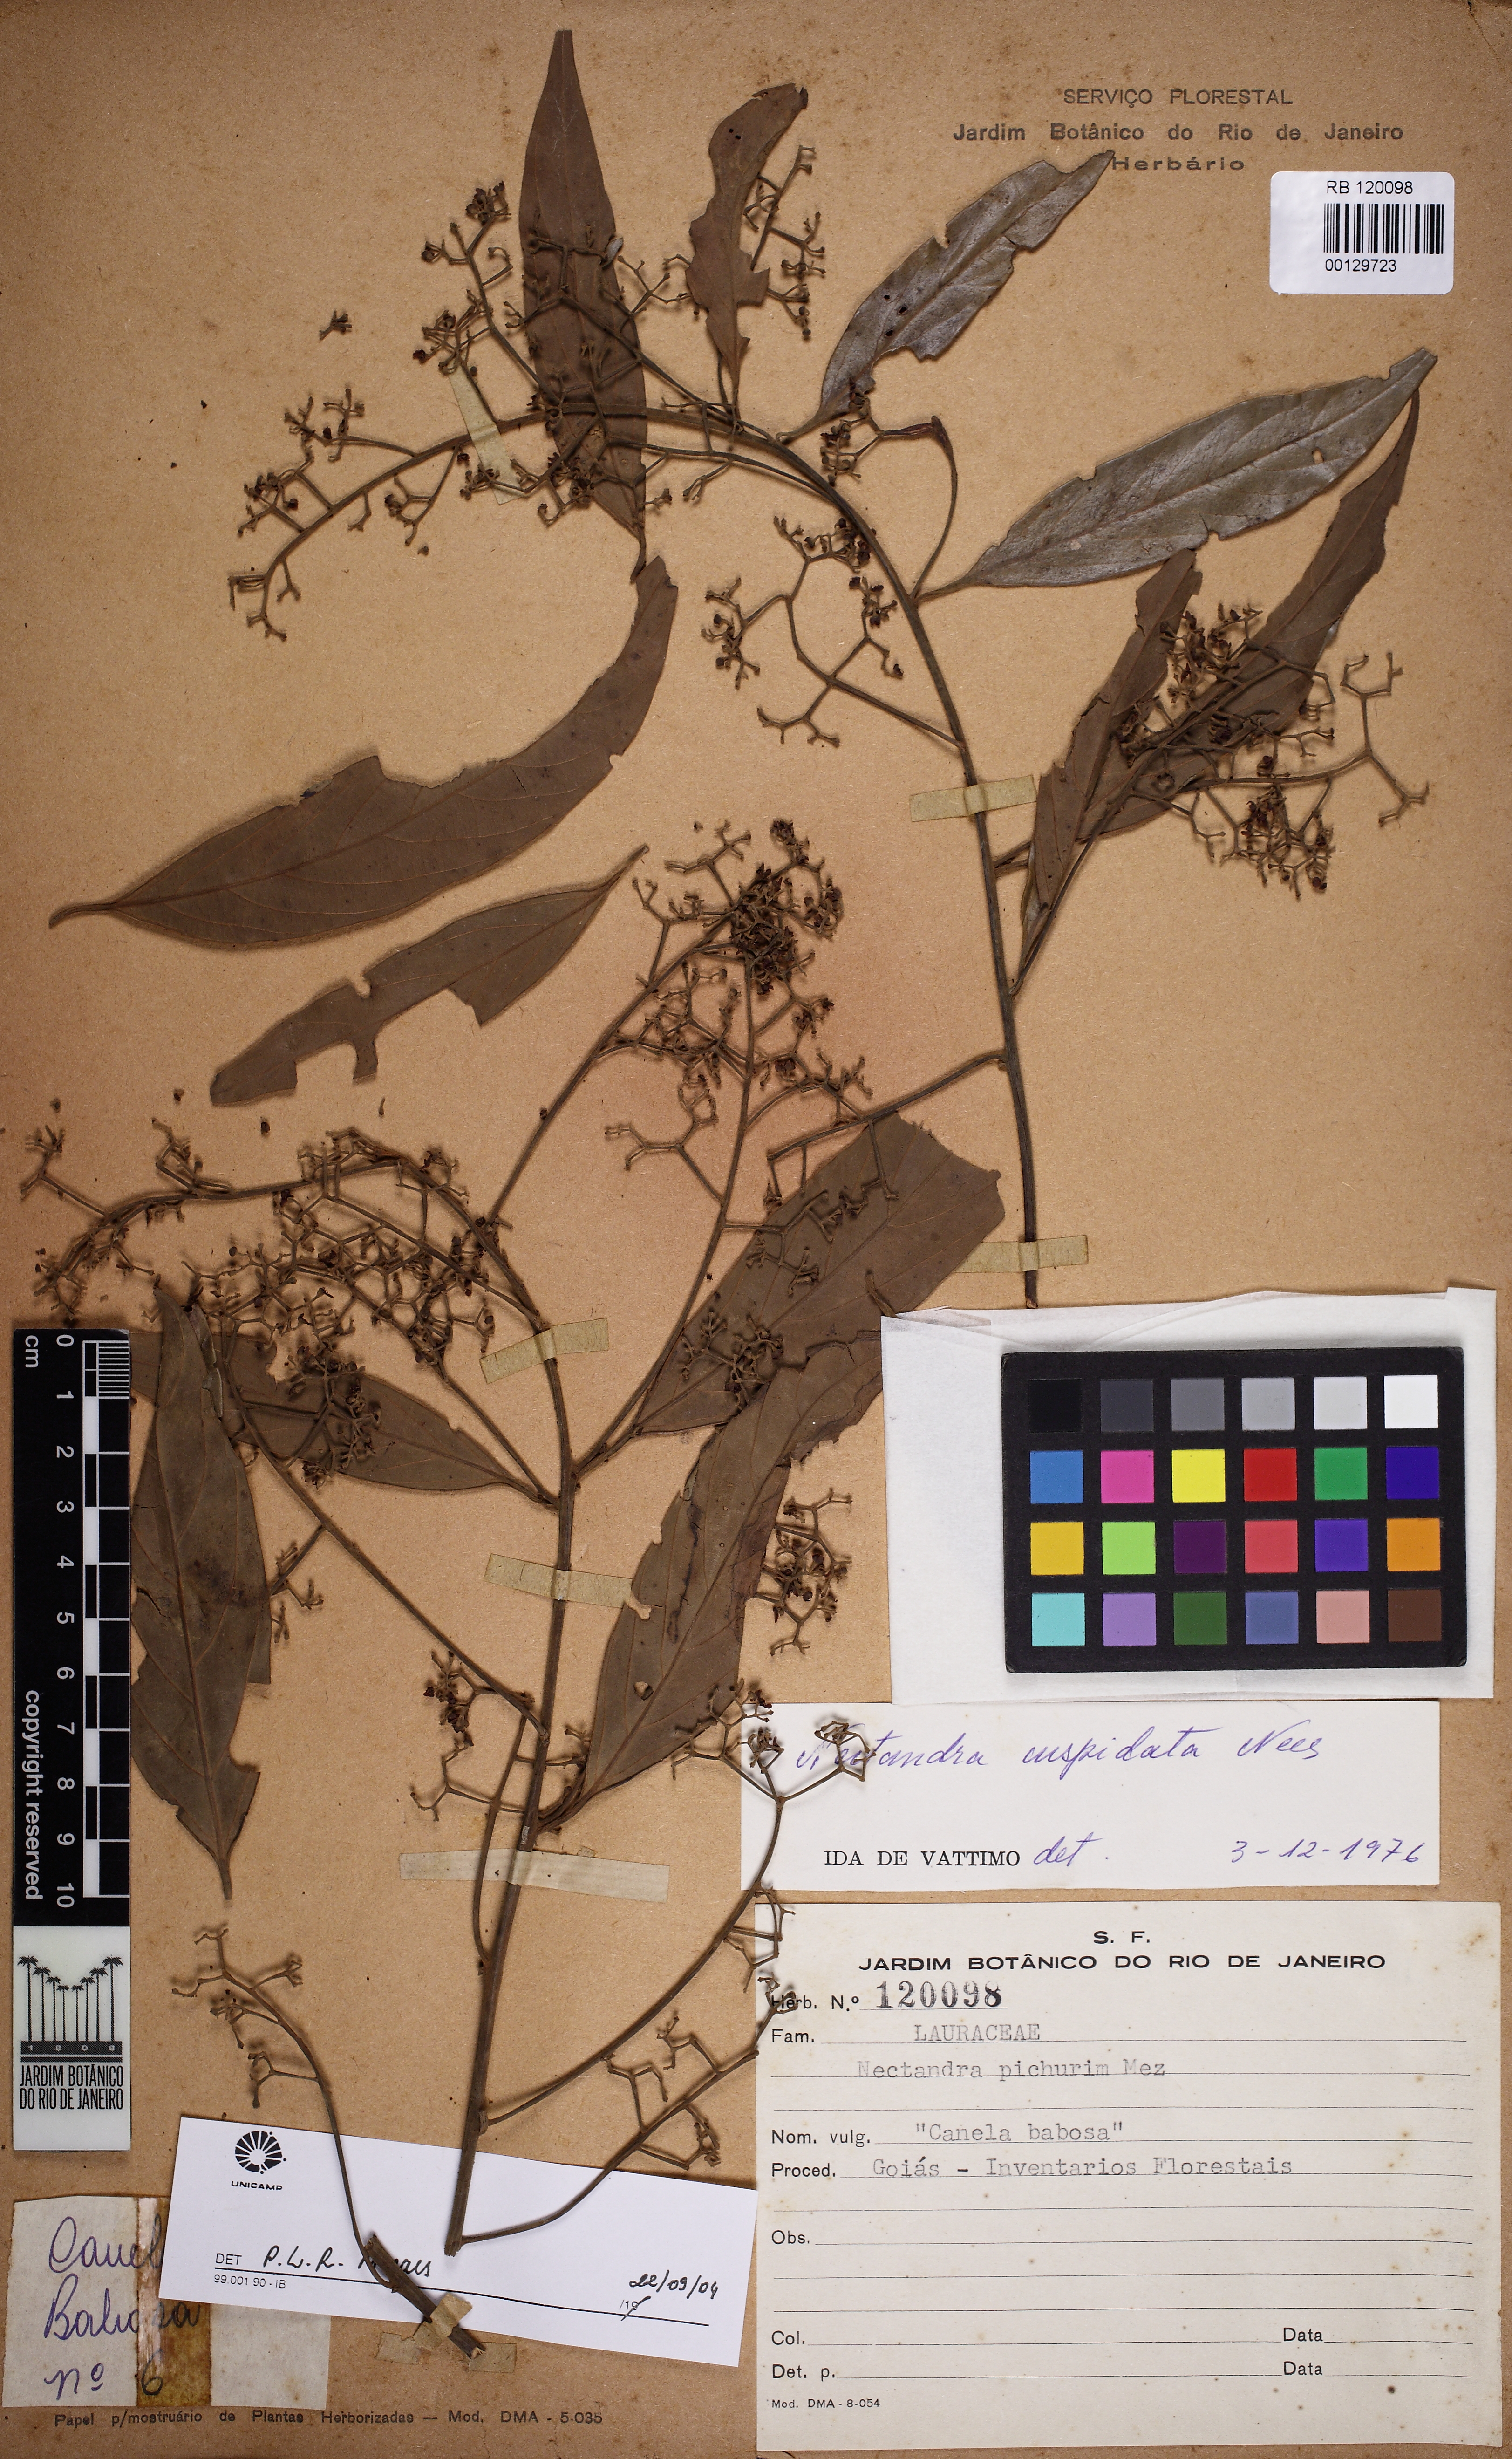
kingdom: Plantae
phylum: Tracheophyta
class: Magnoliopsida
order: Laurales
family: Lauraceae
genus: Nectandra
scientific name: Nectandra cuspidata
